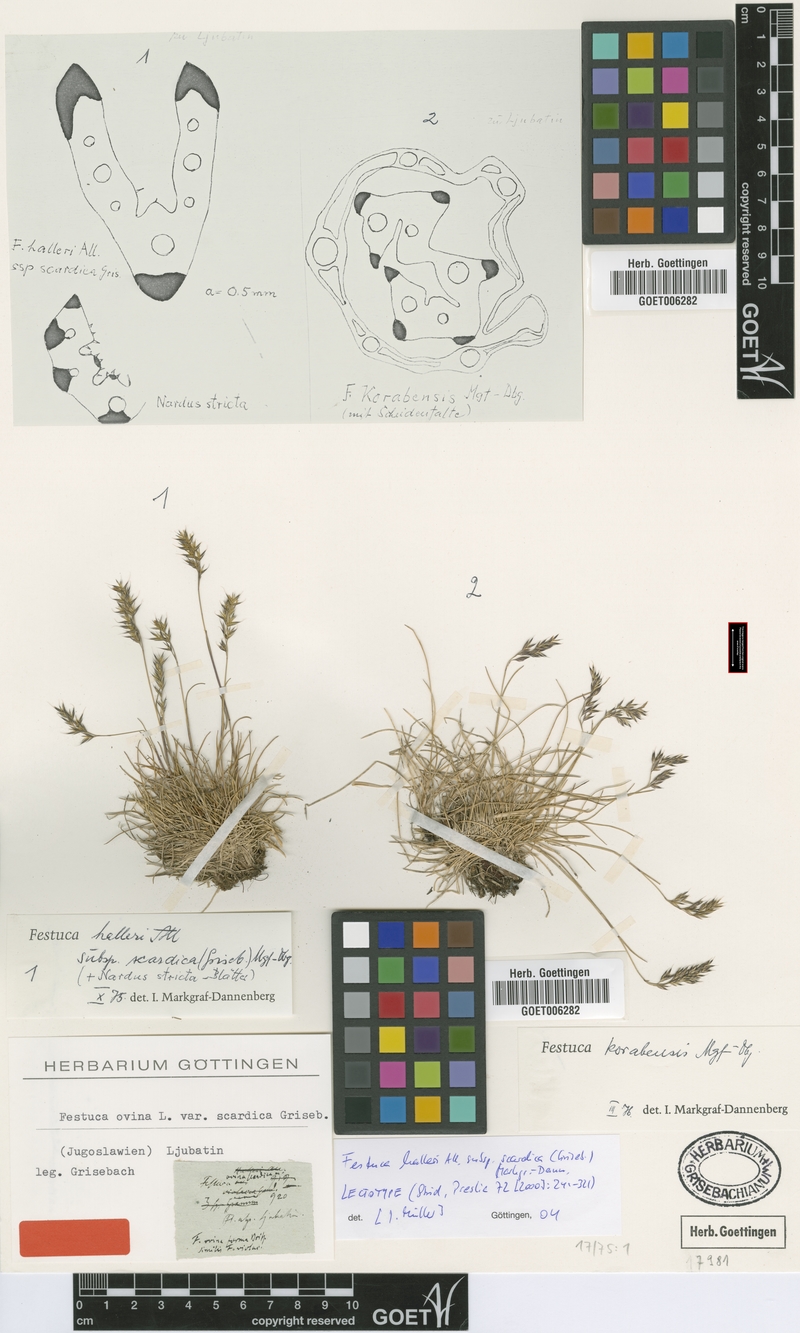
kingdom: Plantae
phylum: Tracheophyta
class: Liliopsida
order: Poales
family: Poaceae
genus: Festuca
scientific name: Festuca halleri
